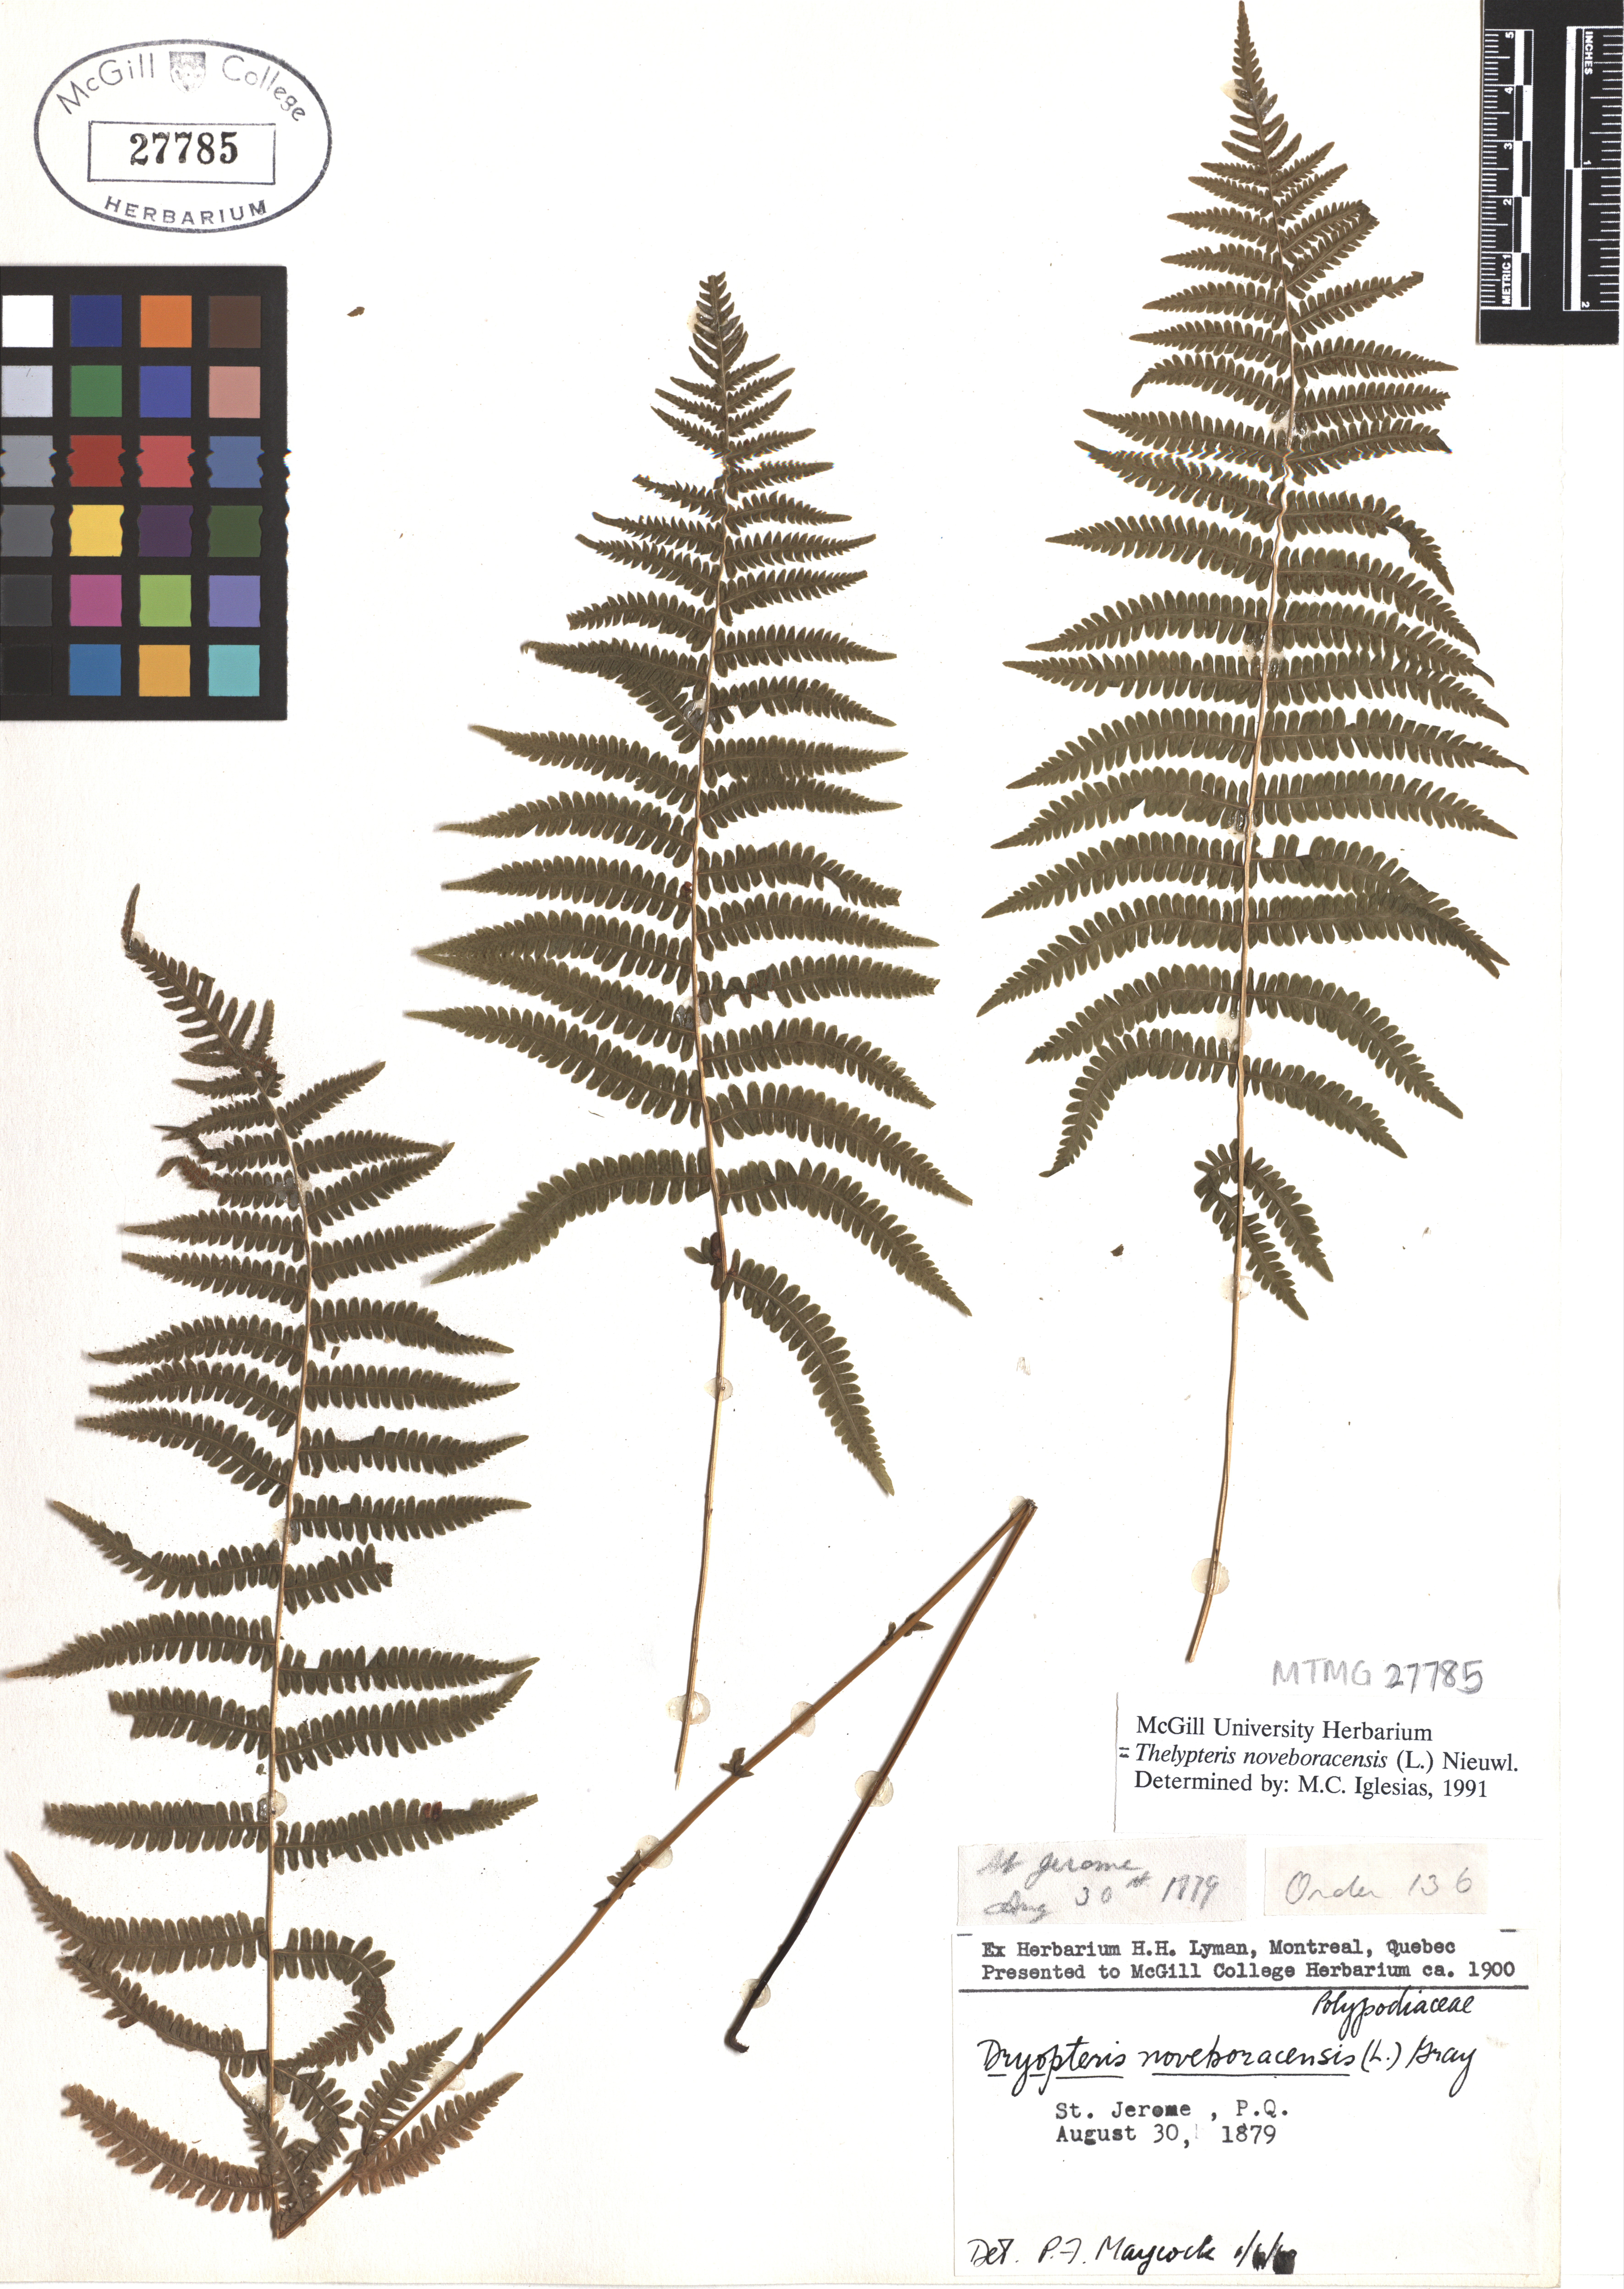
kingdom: Plantae
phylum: Tracheophyta
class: Polypodiopsida
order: Polypodiales
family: Thelypteridaceae
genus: Amauropelta
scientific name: Amauropelta noveboracensis
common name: New york fern
